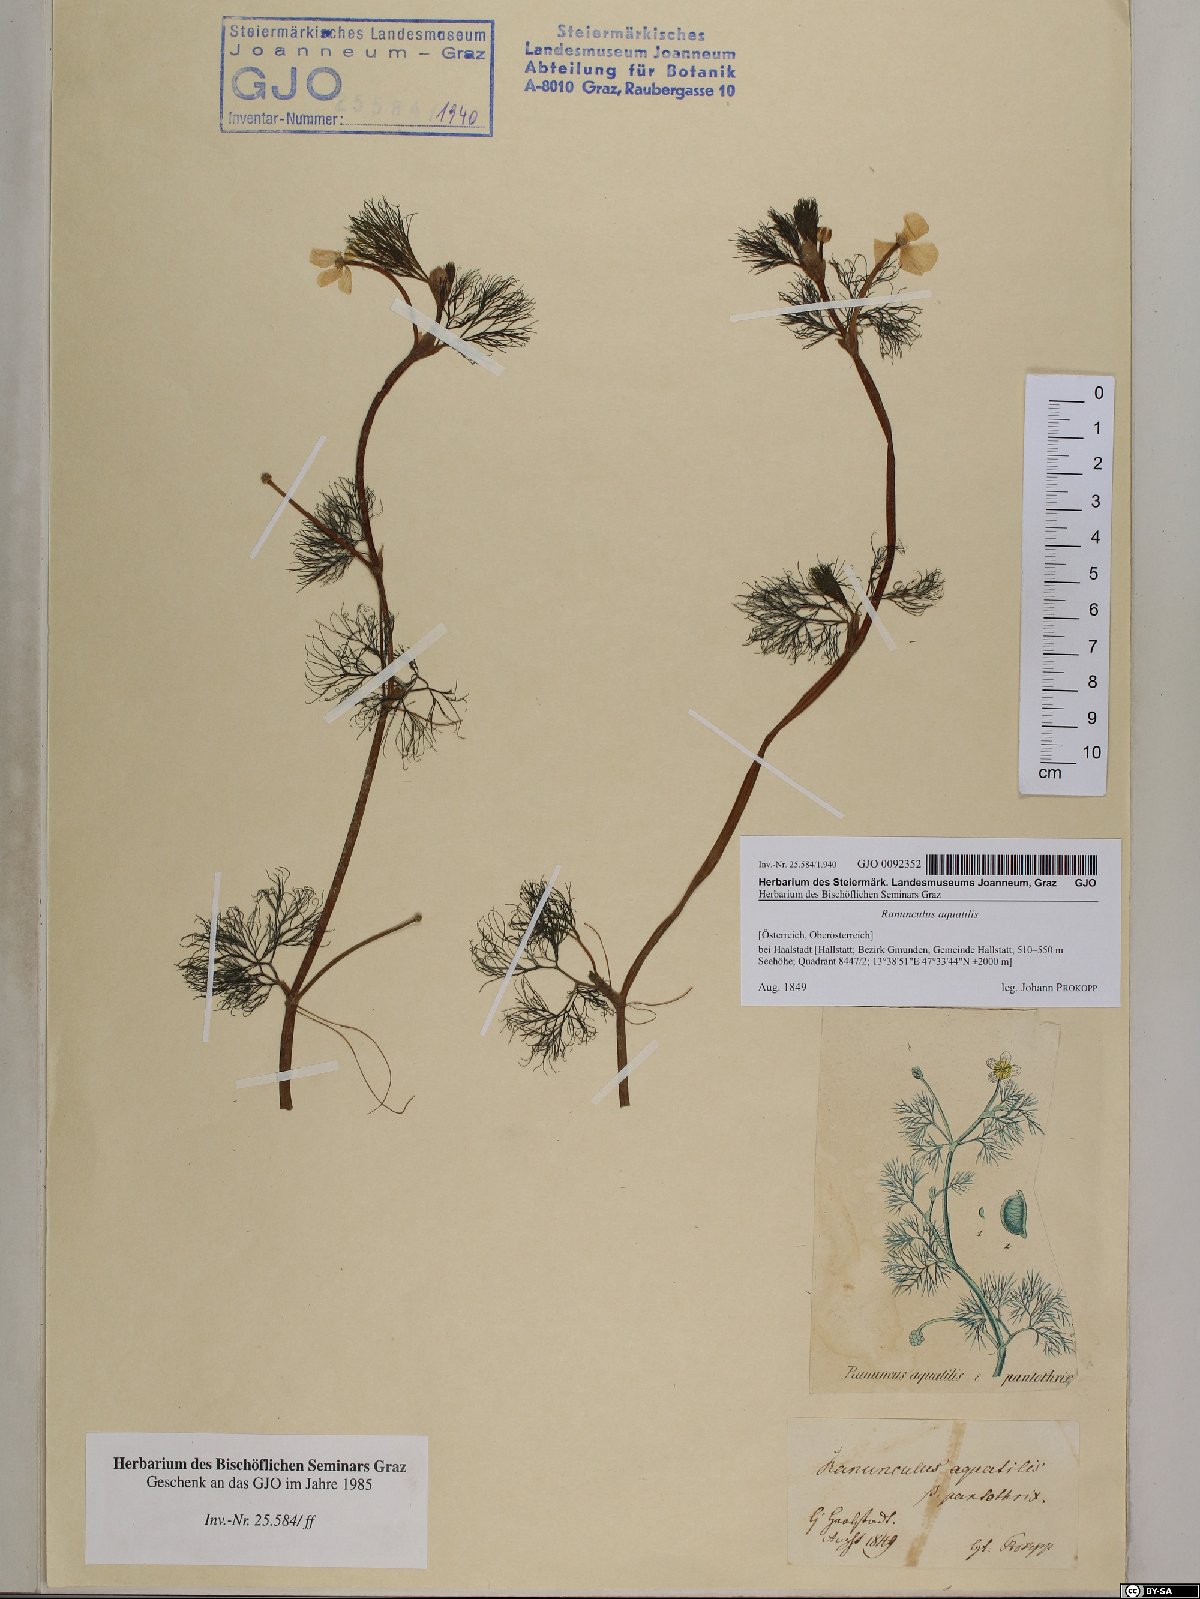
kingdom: Plantae
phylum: Tracheophyta
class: Magnoliopsida
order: Ranunculales
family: Ranunculaceae
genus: Ranunculus
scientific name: Ranunculus aquatilis
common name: Common water-crowfoot
